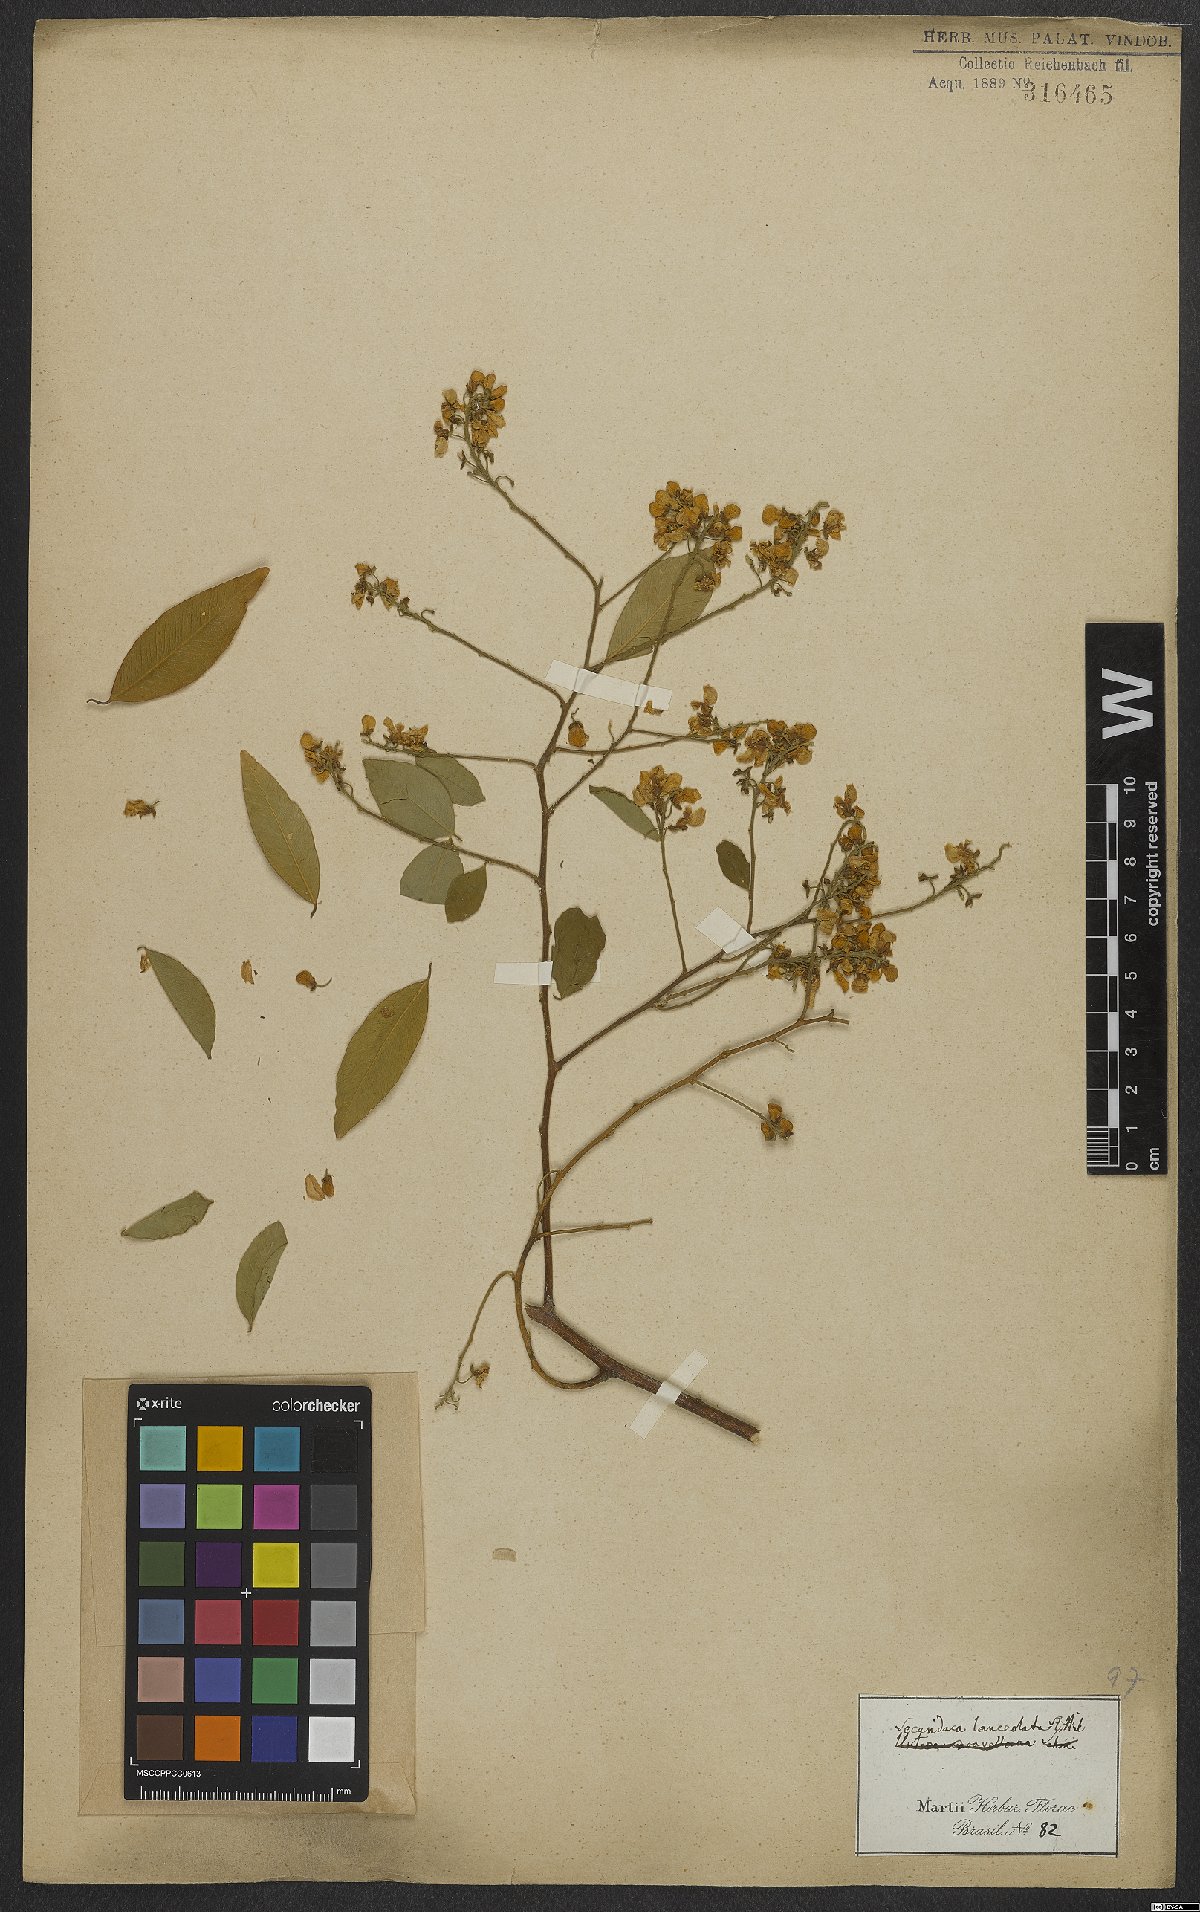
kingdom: Plantae
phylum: Tracheophyta
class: Magnoliopsida
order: Fabales
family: Polygalaceae
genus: Securidaca
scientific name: Securidaca lanceolata
